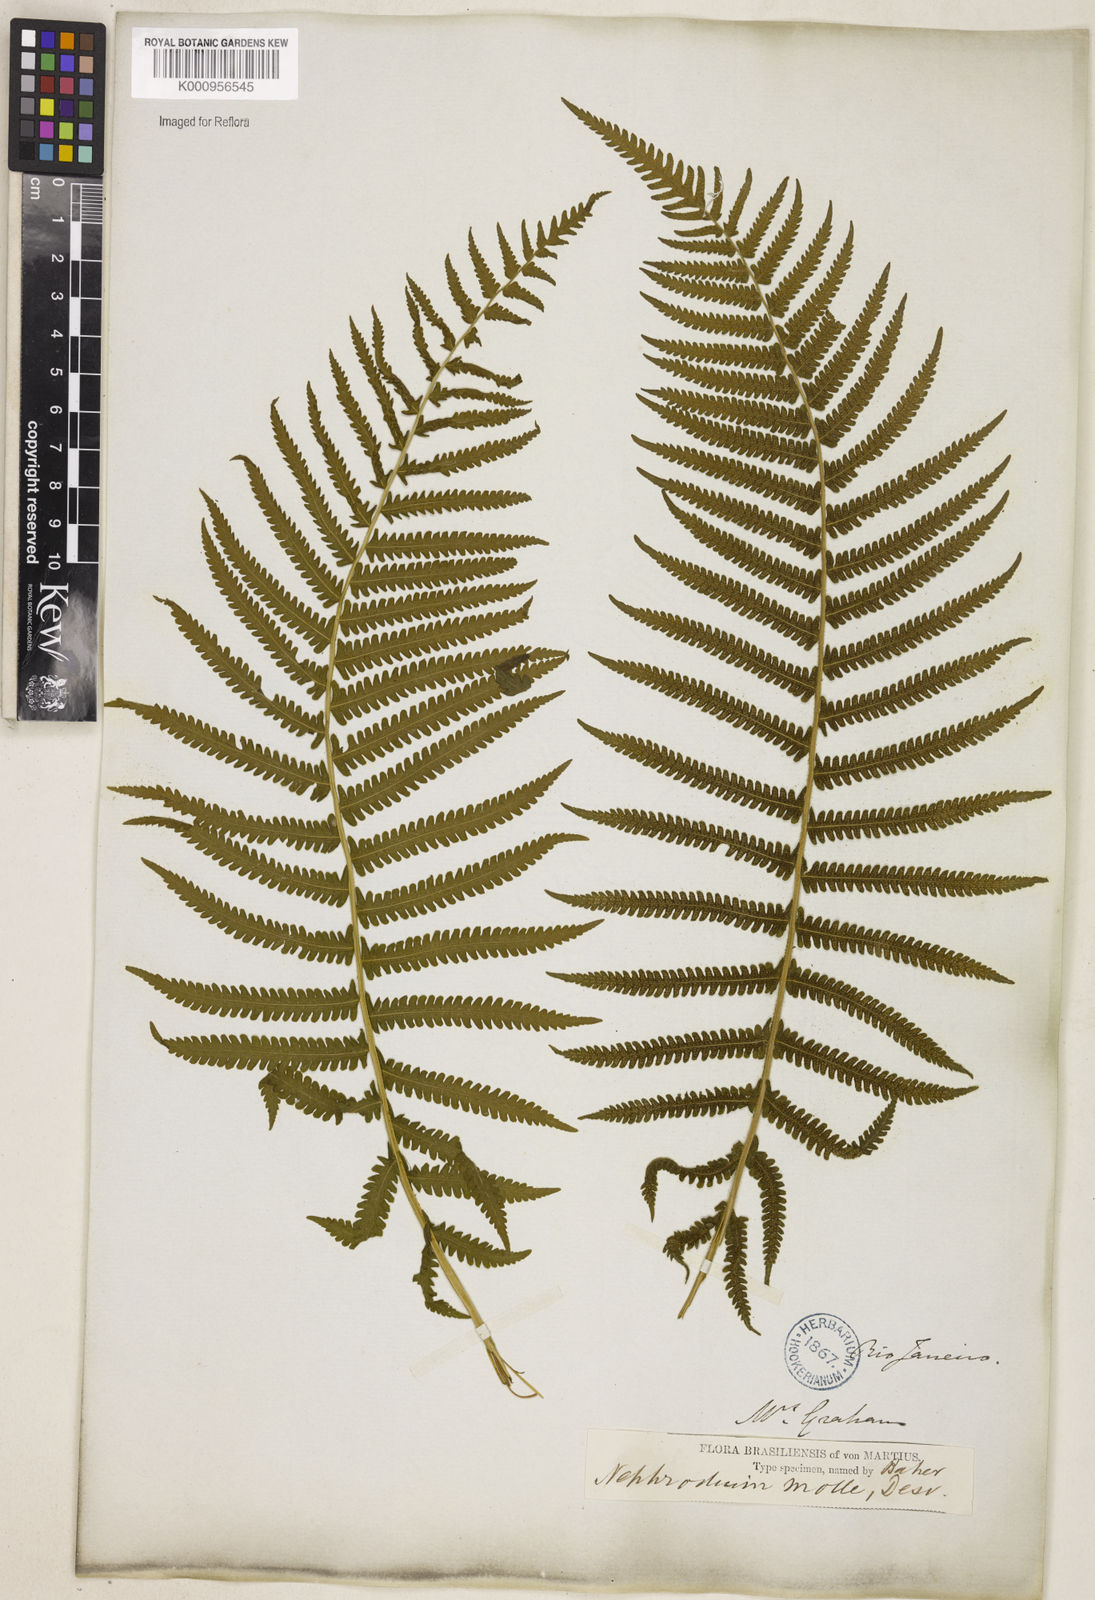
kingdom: Plantae
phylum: Tracheophyta
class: Polypodiopsida
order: Polypodiales
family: Thelypteridaceae
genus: Christella
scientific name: Christella hispidula
